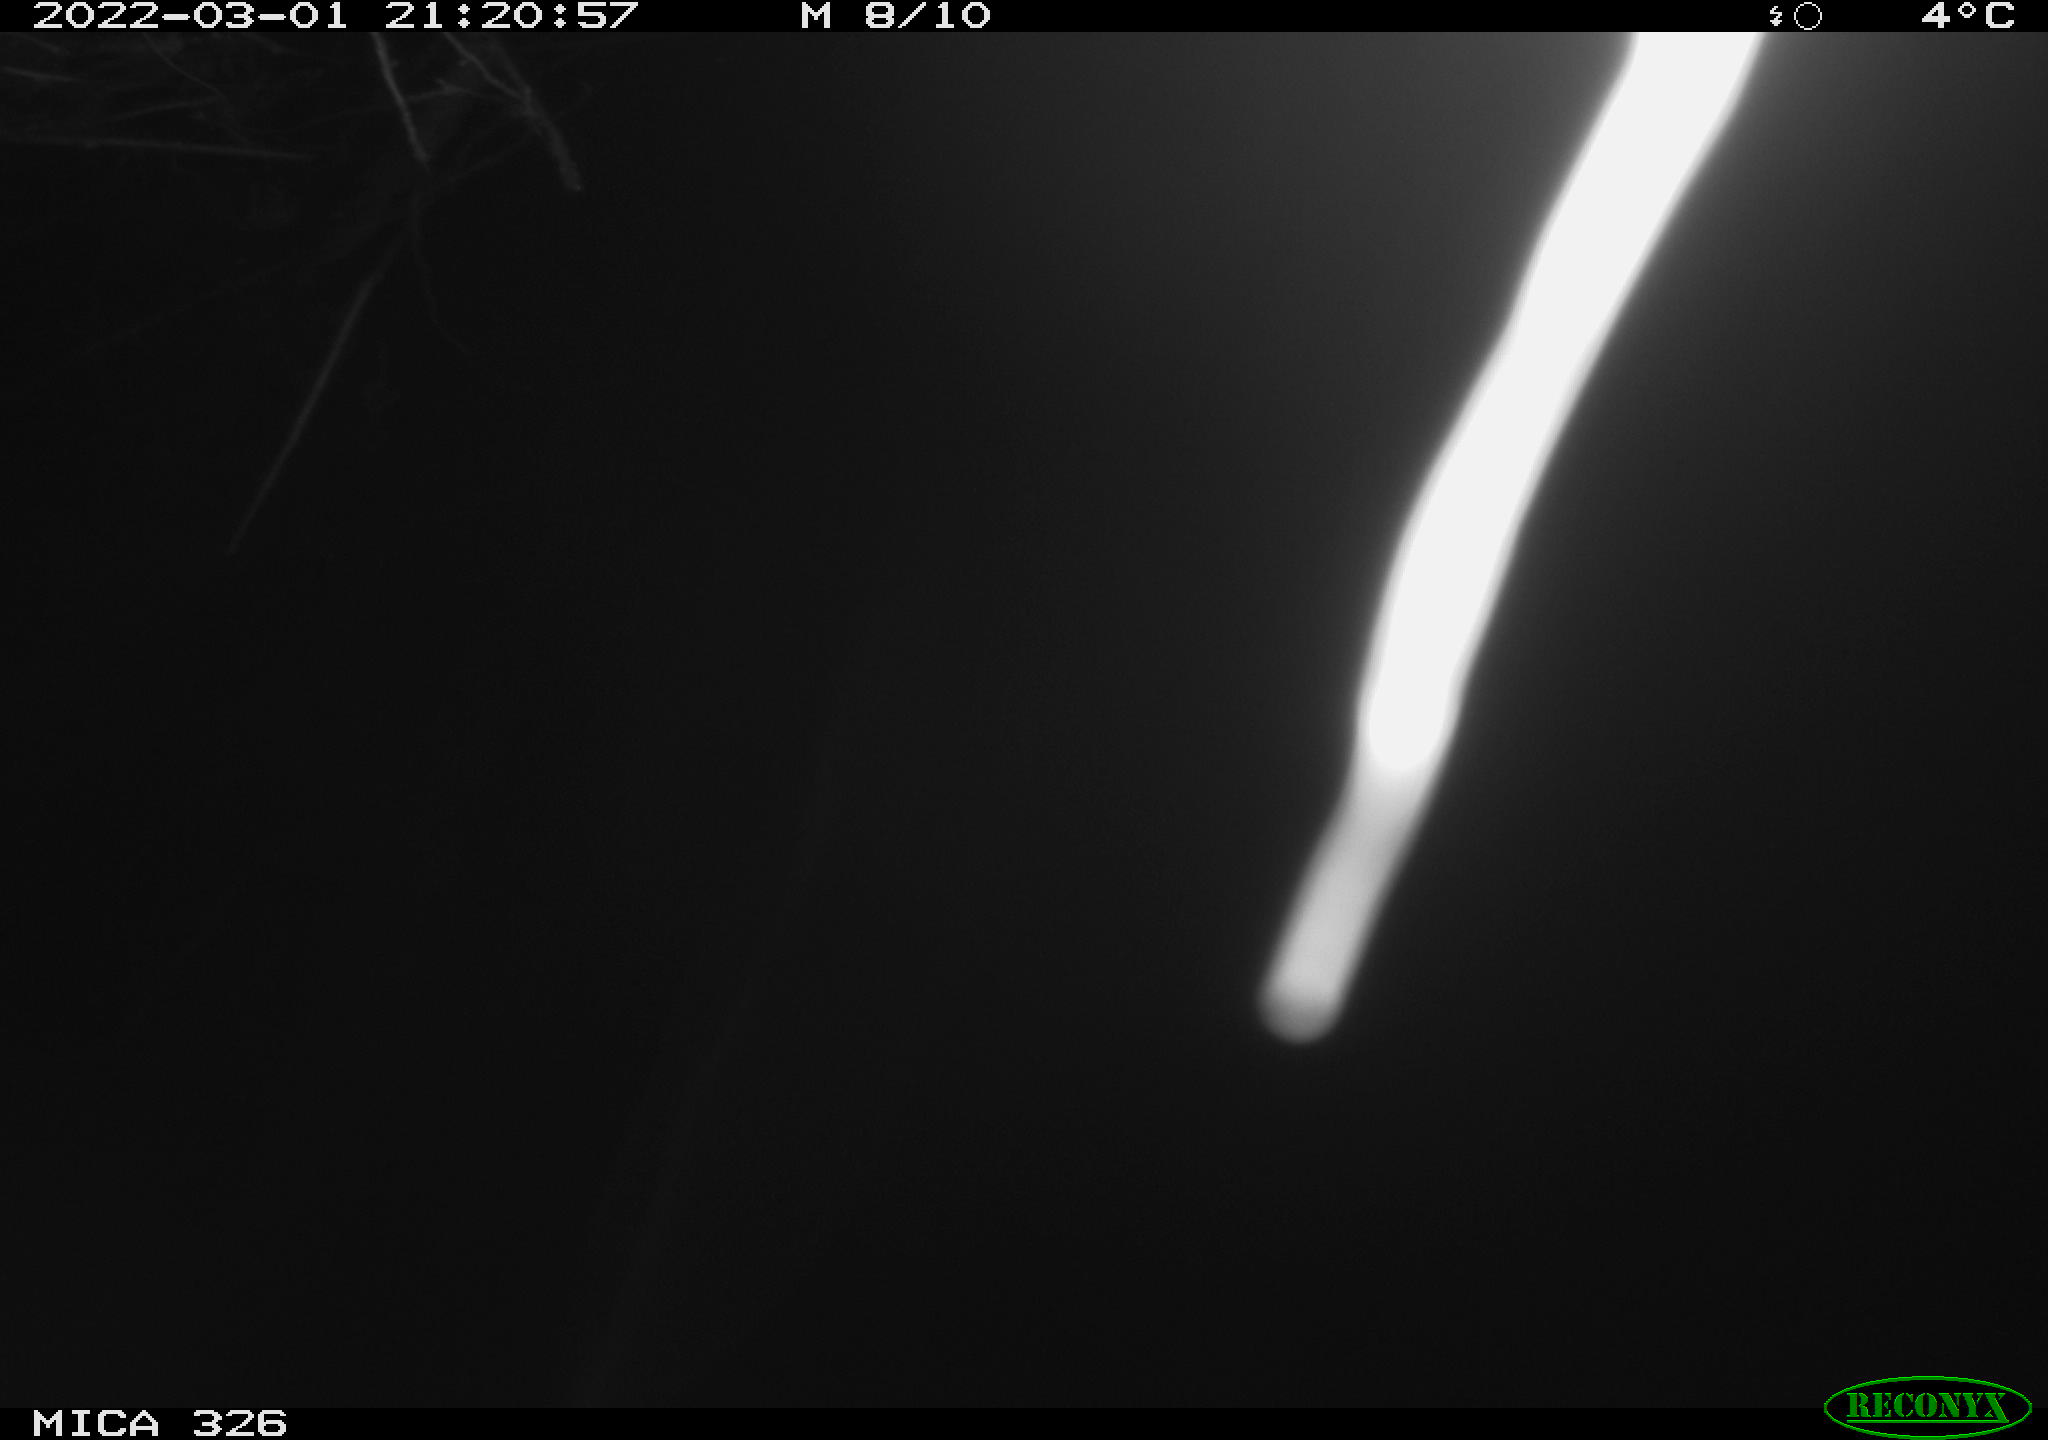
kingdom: Animalia
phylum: Chordata
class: Mammalia
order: Rodentia
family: Cricetidae
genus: Ondatra
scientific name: Ondatra zibethicus
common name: Muskrat
